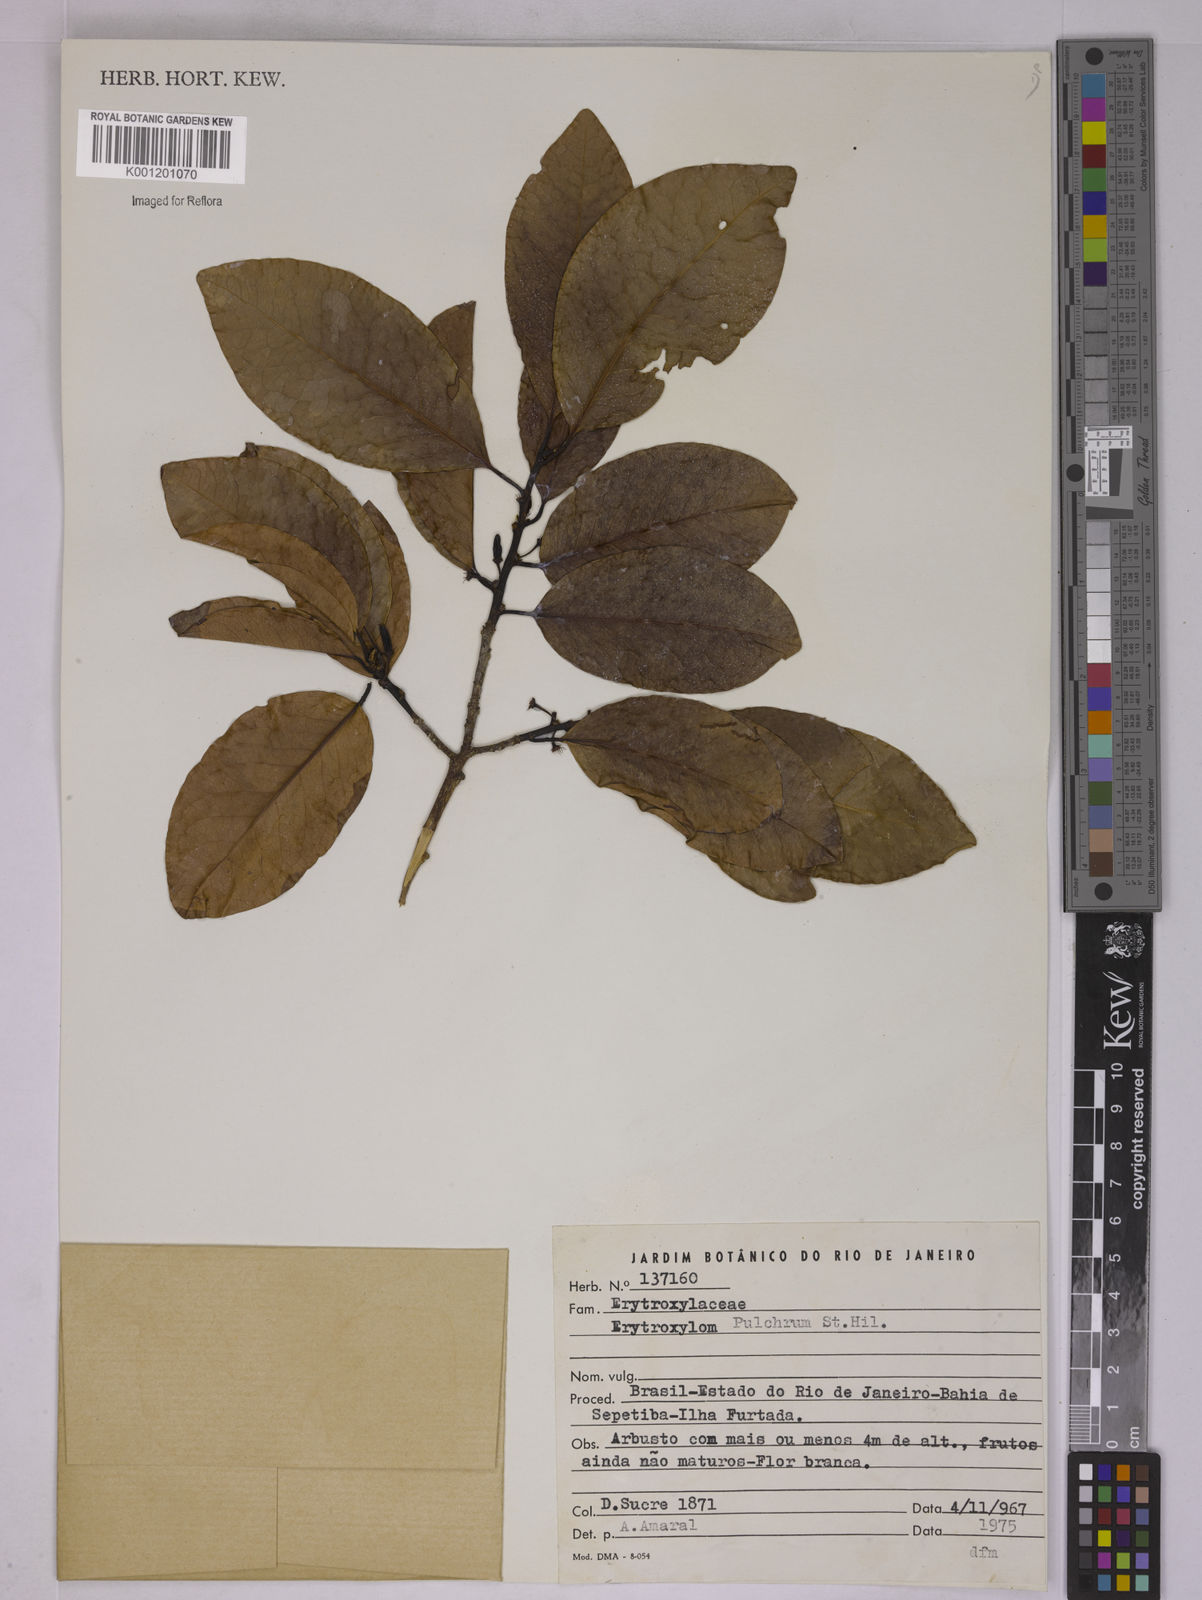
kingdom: Plantae
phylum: Tracheophyta
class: Magnoliopsida
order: Malpighiales
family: Erythroxylaceae
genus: Erythroxylum
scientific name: Erythroxylum pulchrum
